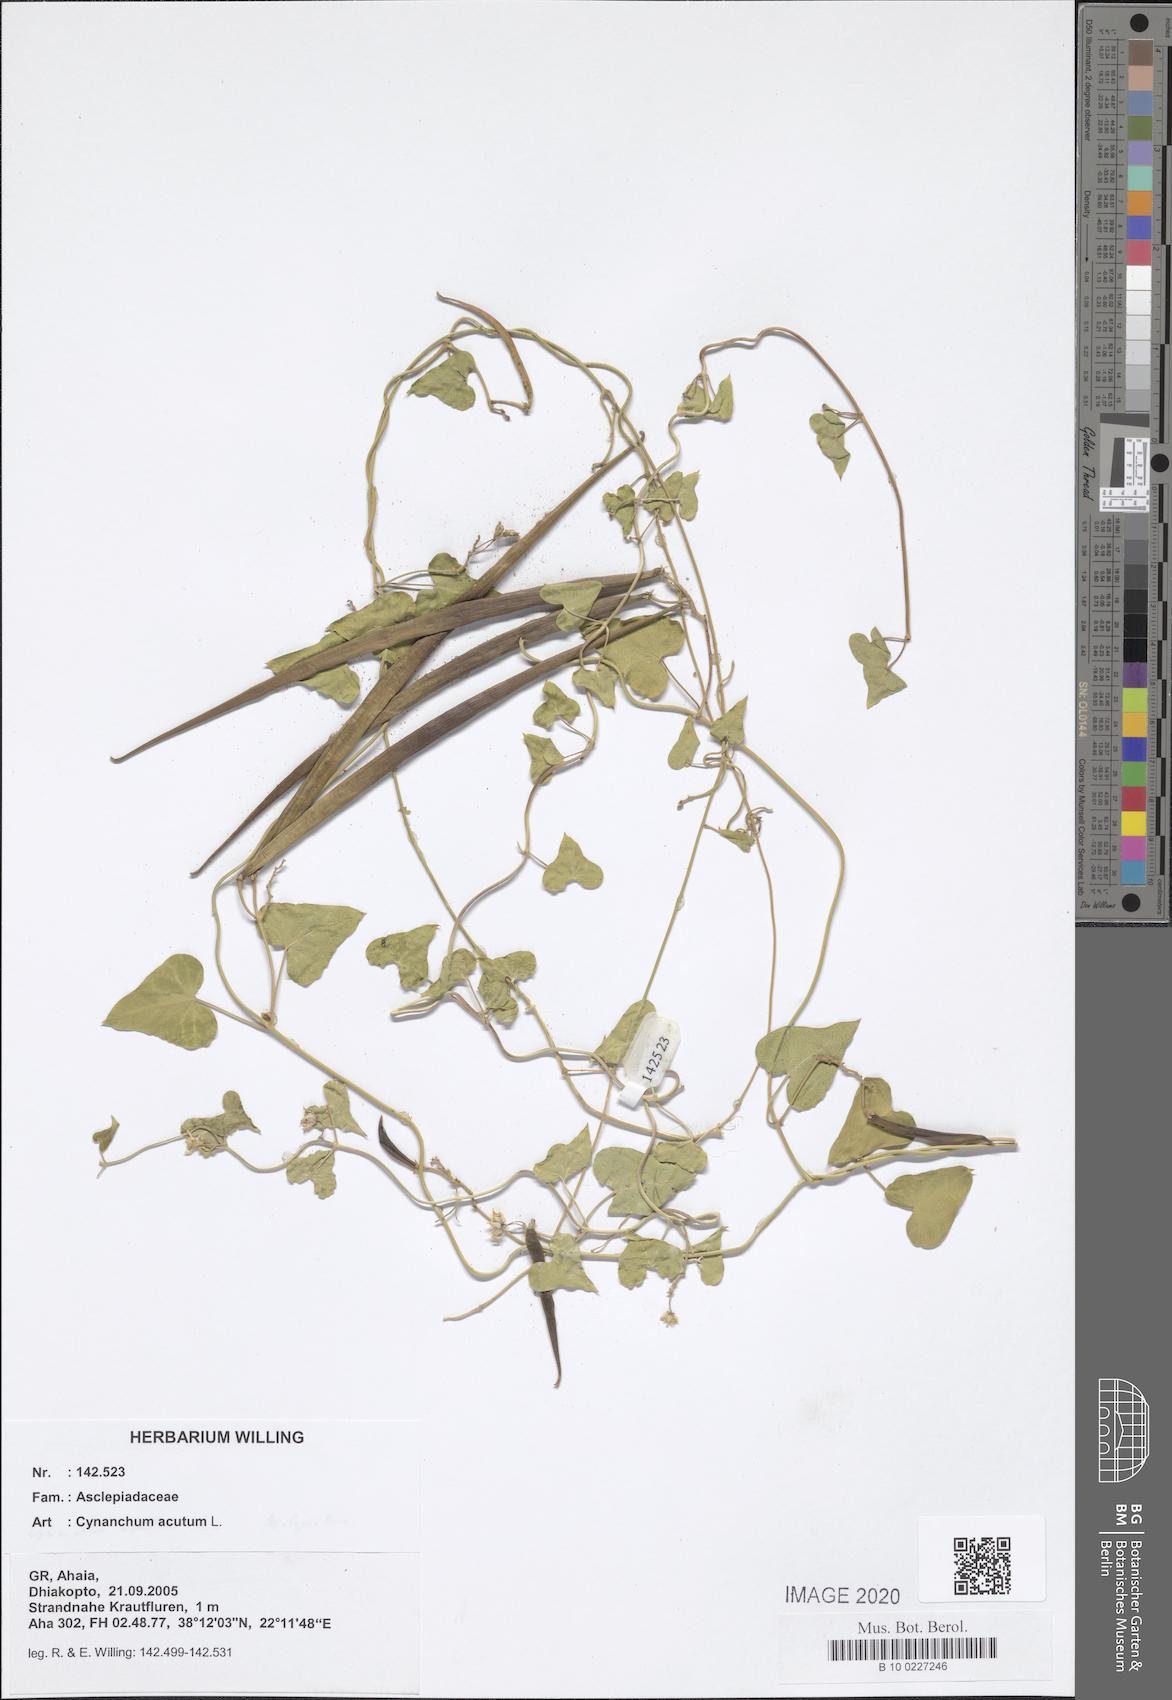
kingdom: Plantae
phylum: Tracheophyta
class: Magnoliopsida
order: Gentianales
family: Apocynaceae
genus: Cynanchum
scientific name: Cynanchum acutum
